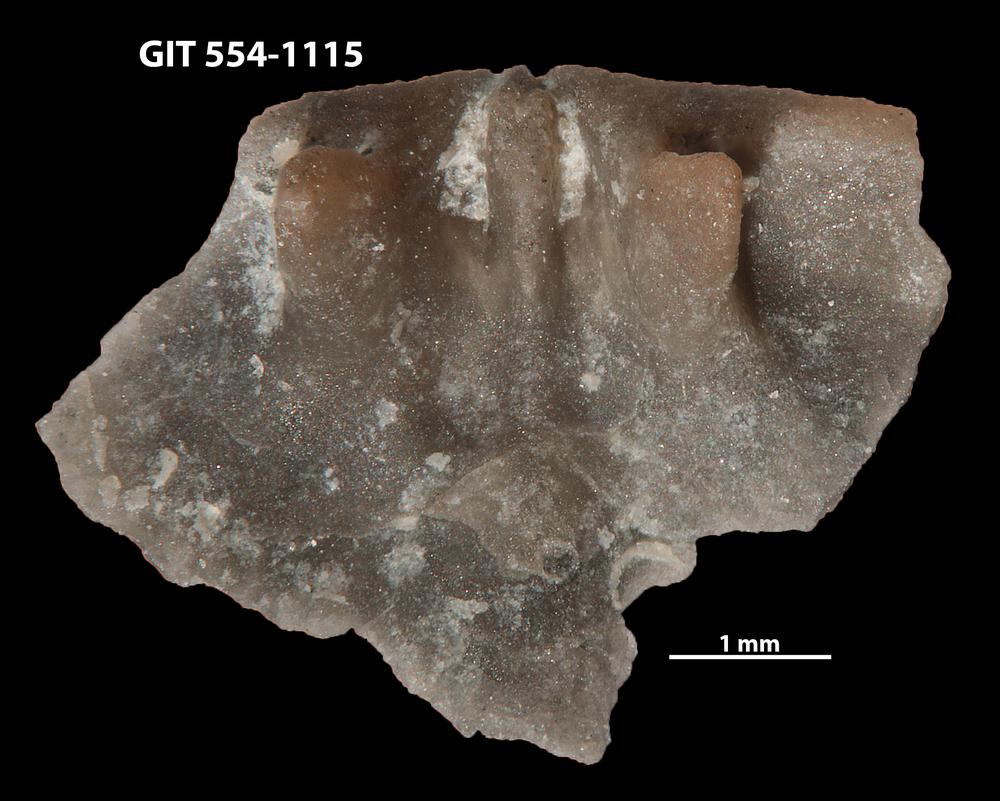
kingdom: Animalia
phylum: Brachiopoda
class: Rhynchonellata
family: Rhipidomellidae
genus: Mendacella
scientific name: Mendacella circularis
